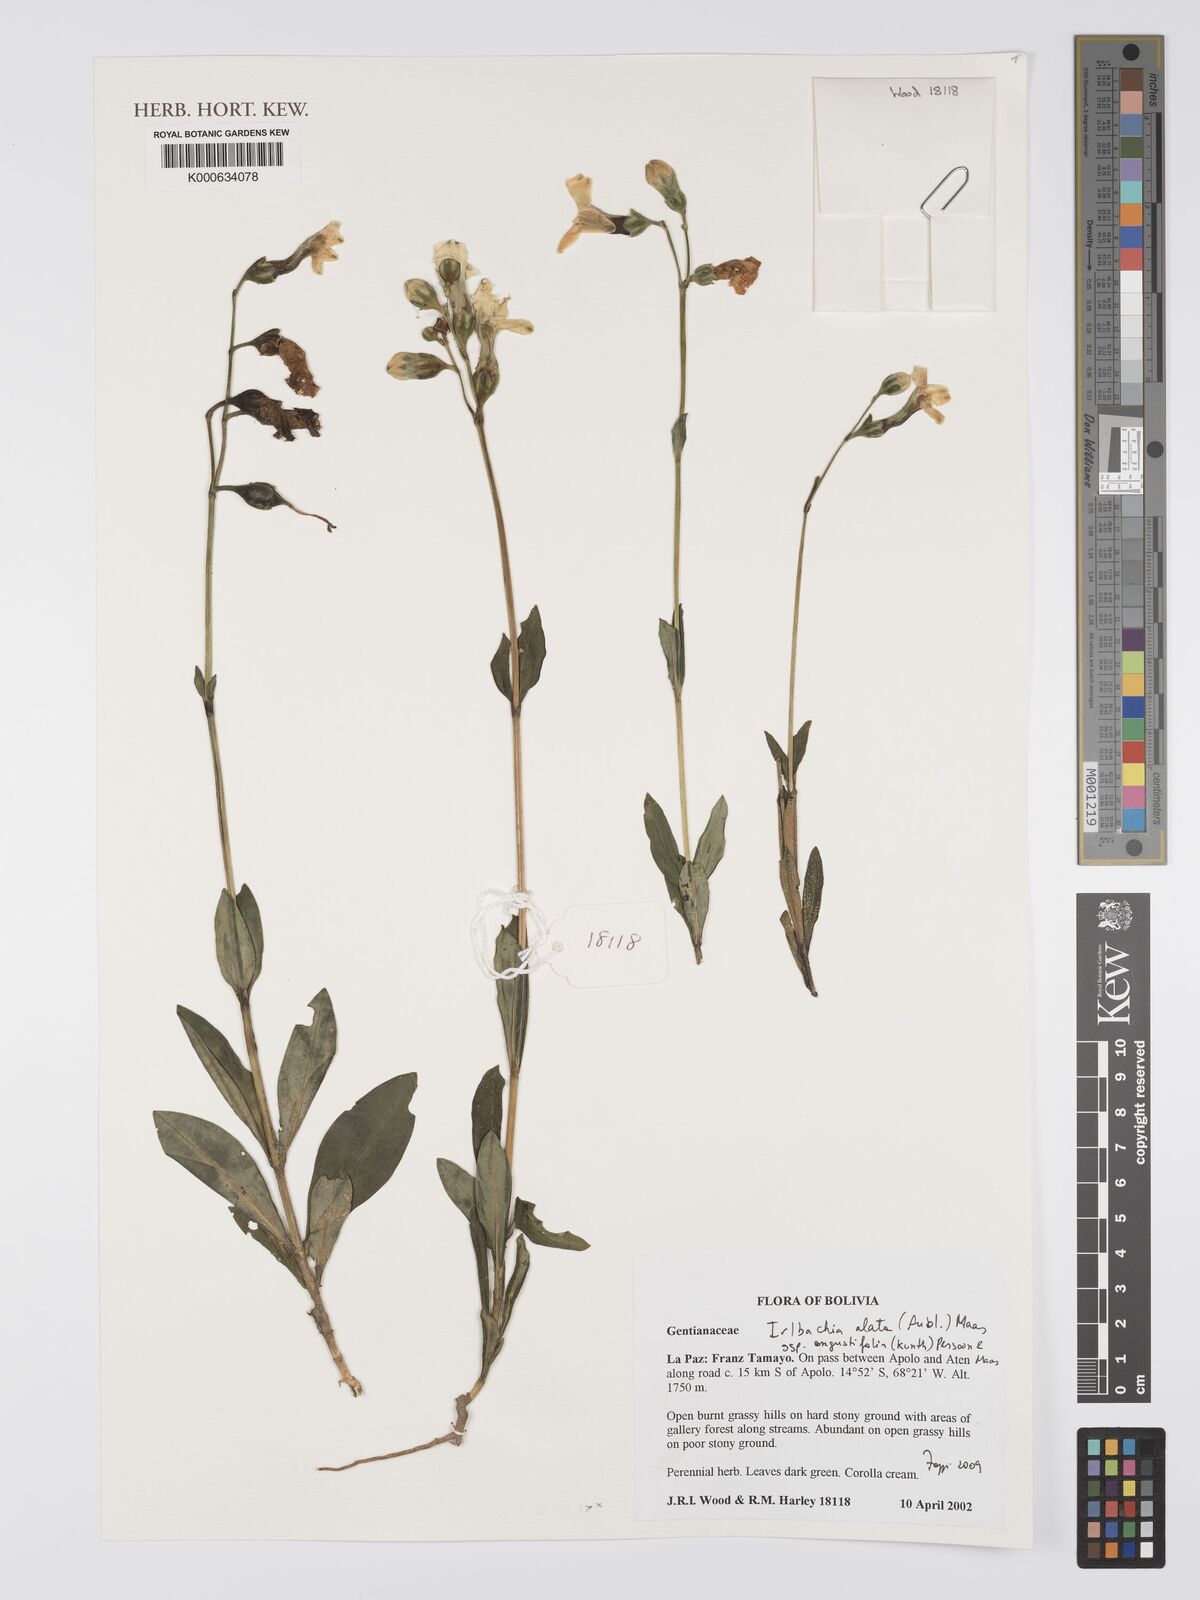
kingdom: Plantae
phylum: Tracheophyta
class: Magnoliopsida
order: Gentianales
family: Gentianaceae
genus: Chelonanthus
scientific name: Chelonanthus alatus
